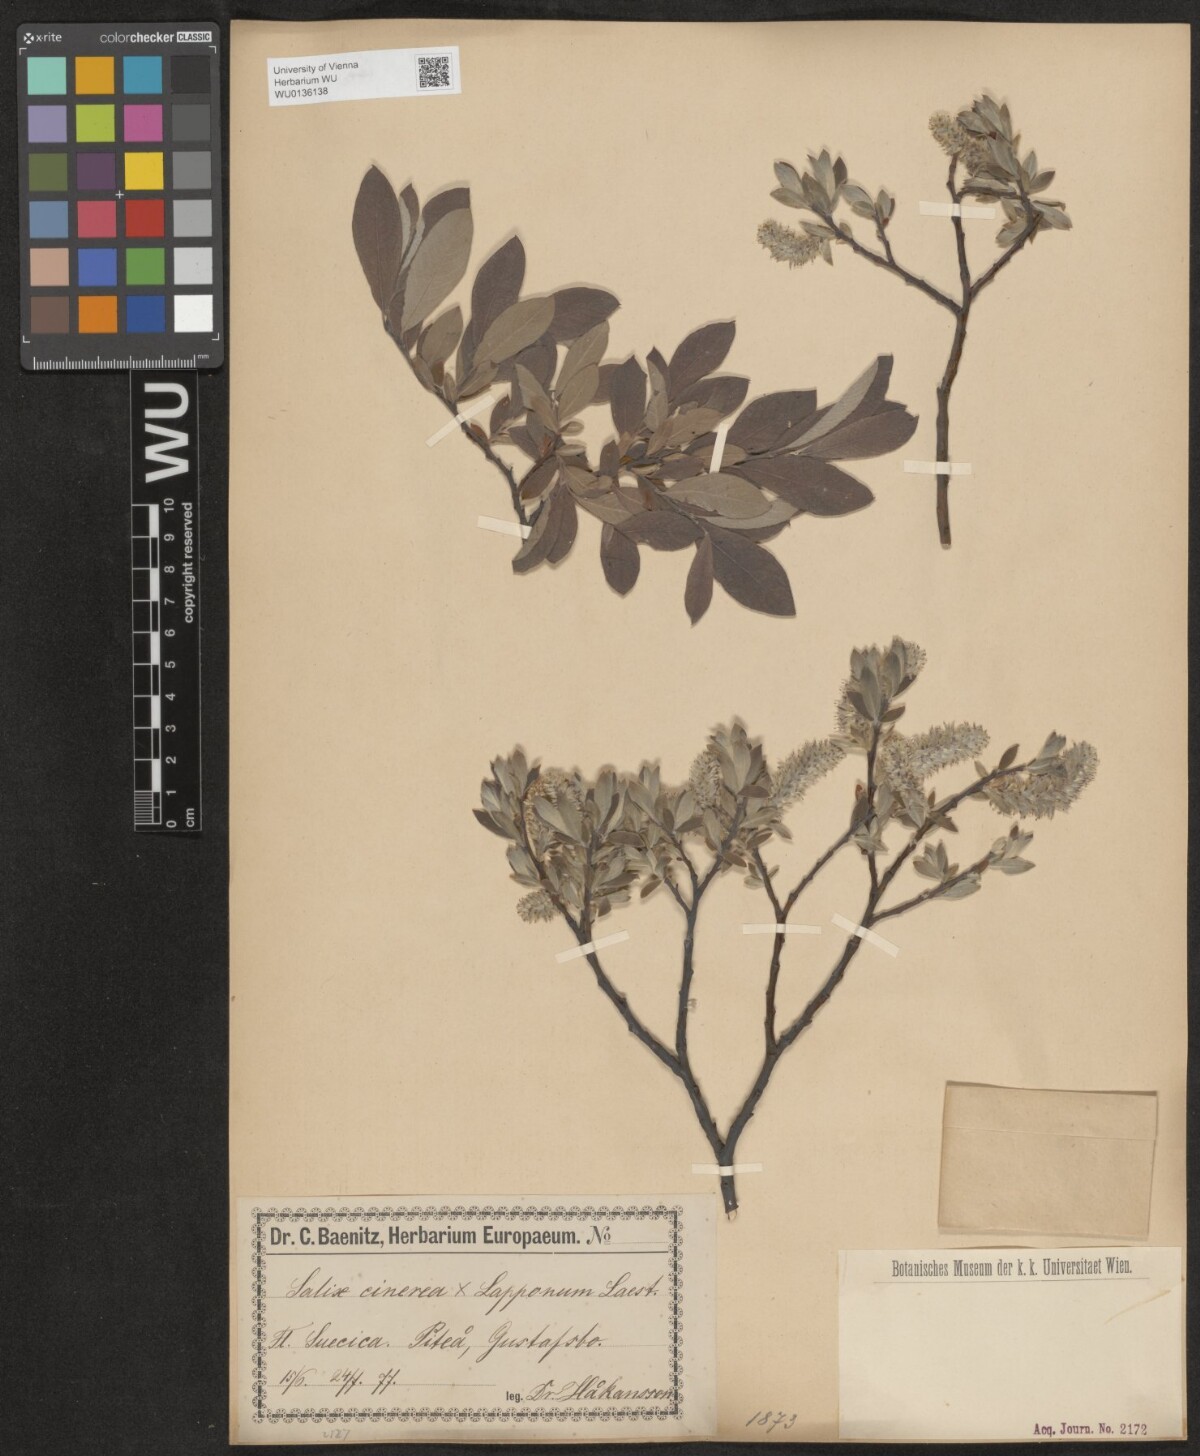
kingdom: Plantae
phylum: Tracheophyta
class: Magnoliopsida
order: Malpighiales
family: Salicaceae
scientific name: Salicaceae
